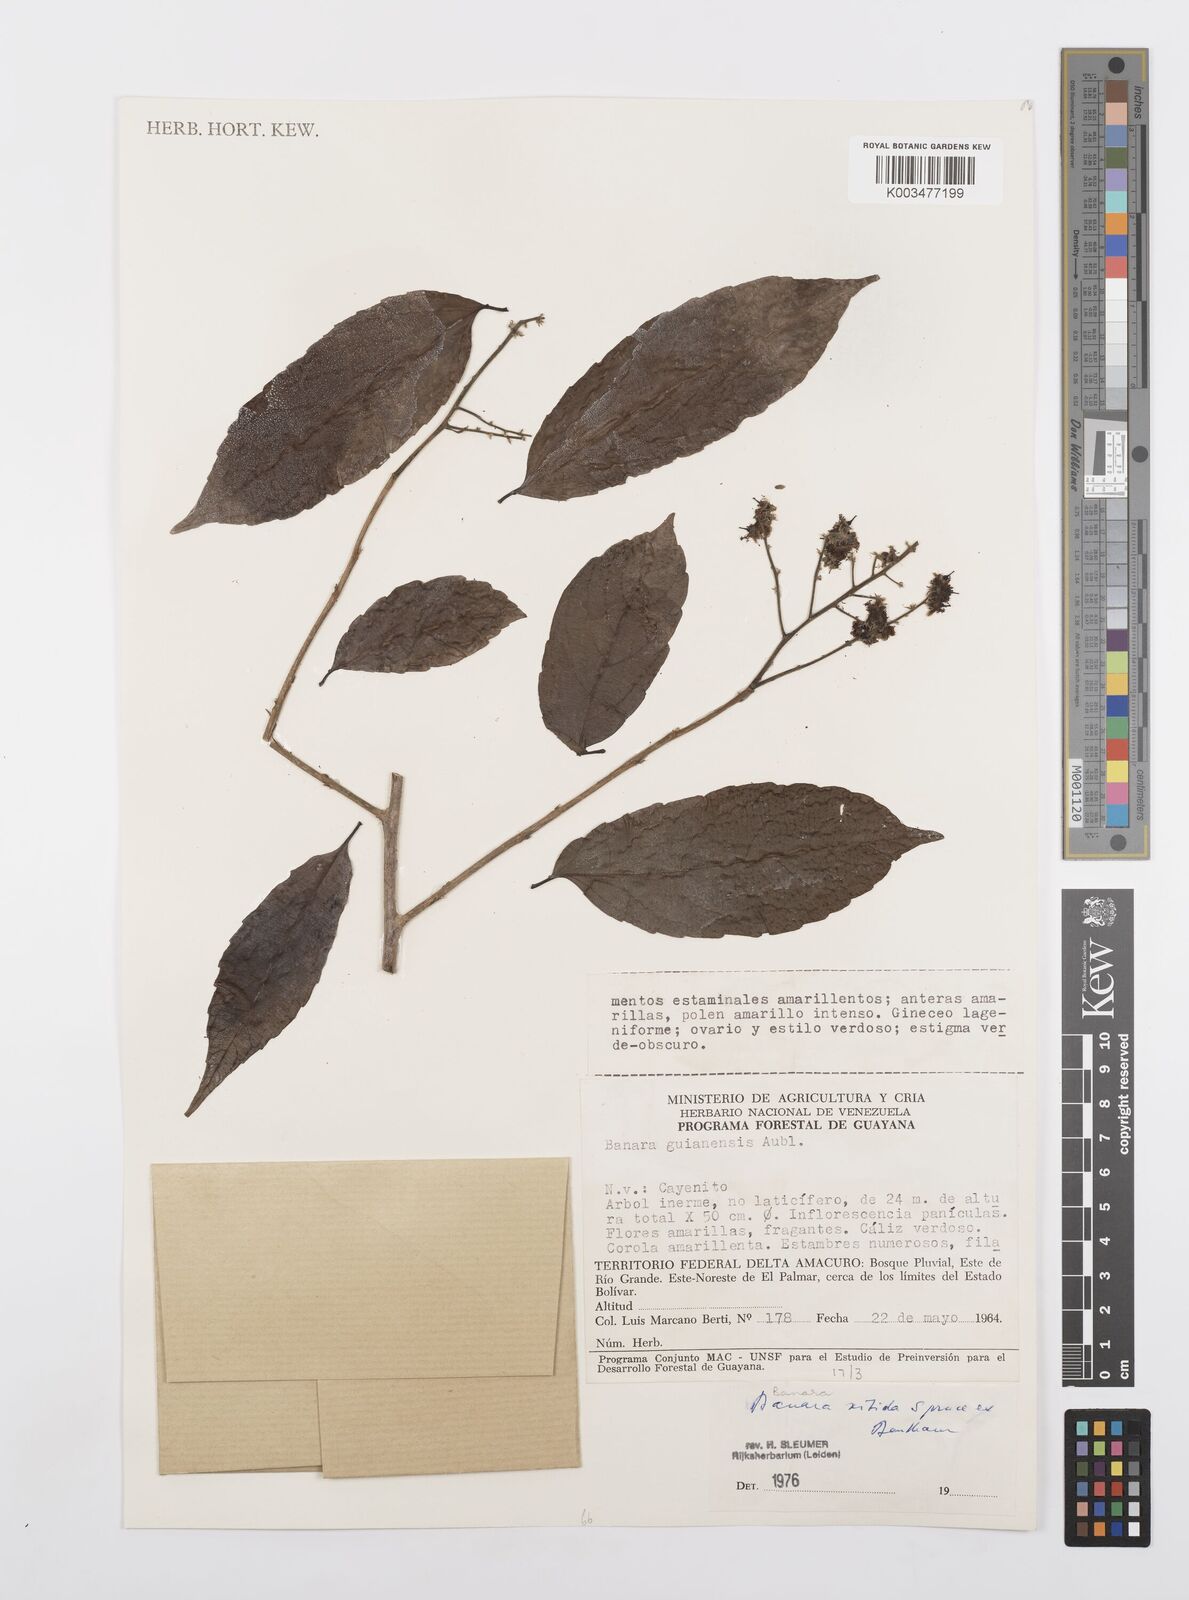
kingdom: Plantae
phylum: Tracheophyta
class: Magnoliopsida
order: Malpighiales
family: Salicaceae
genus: Banara
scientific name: Banara nitida
